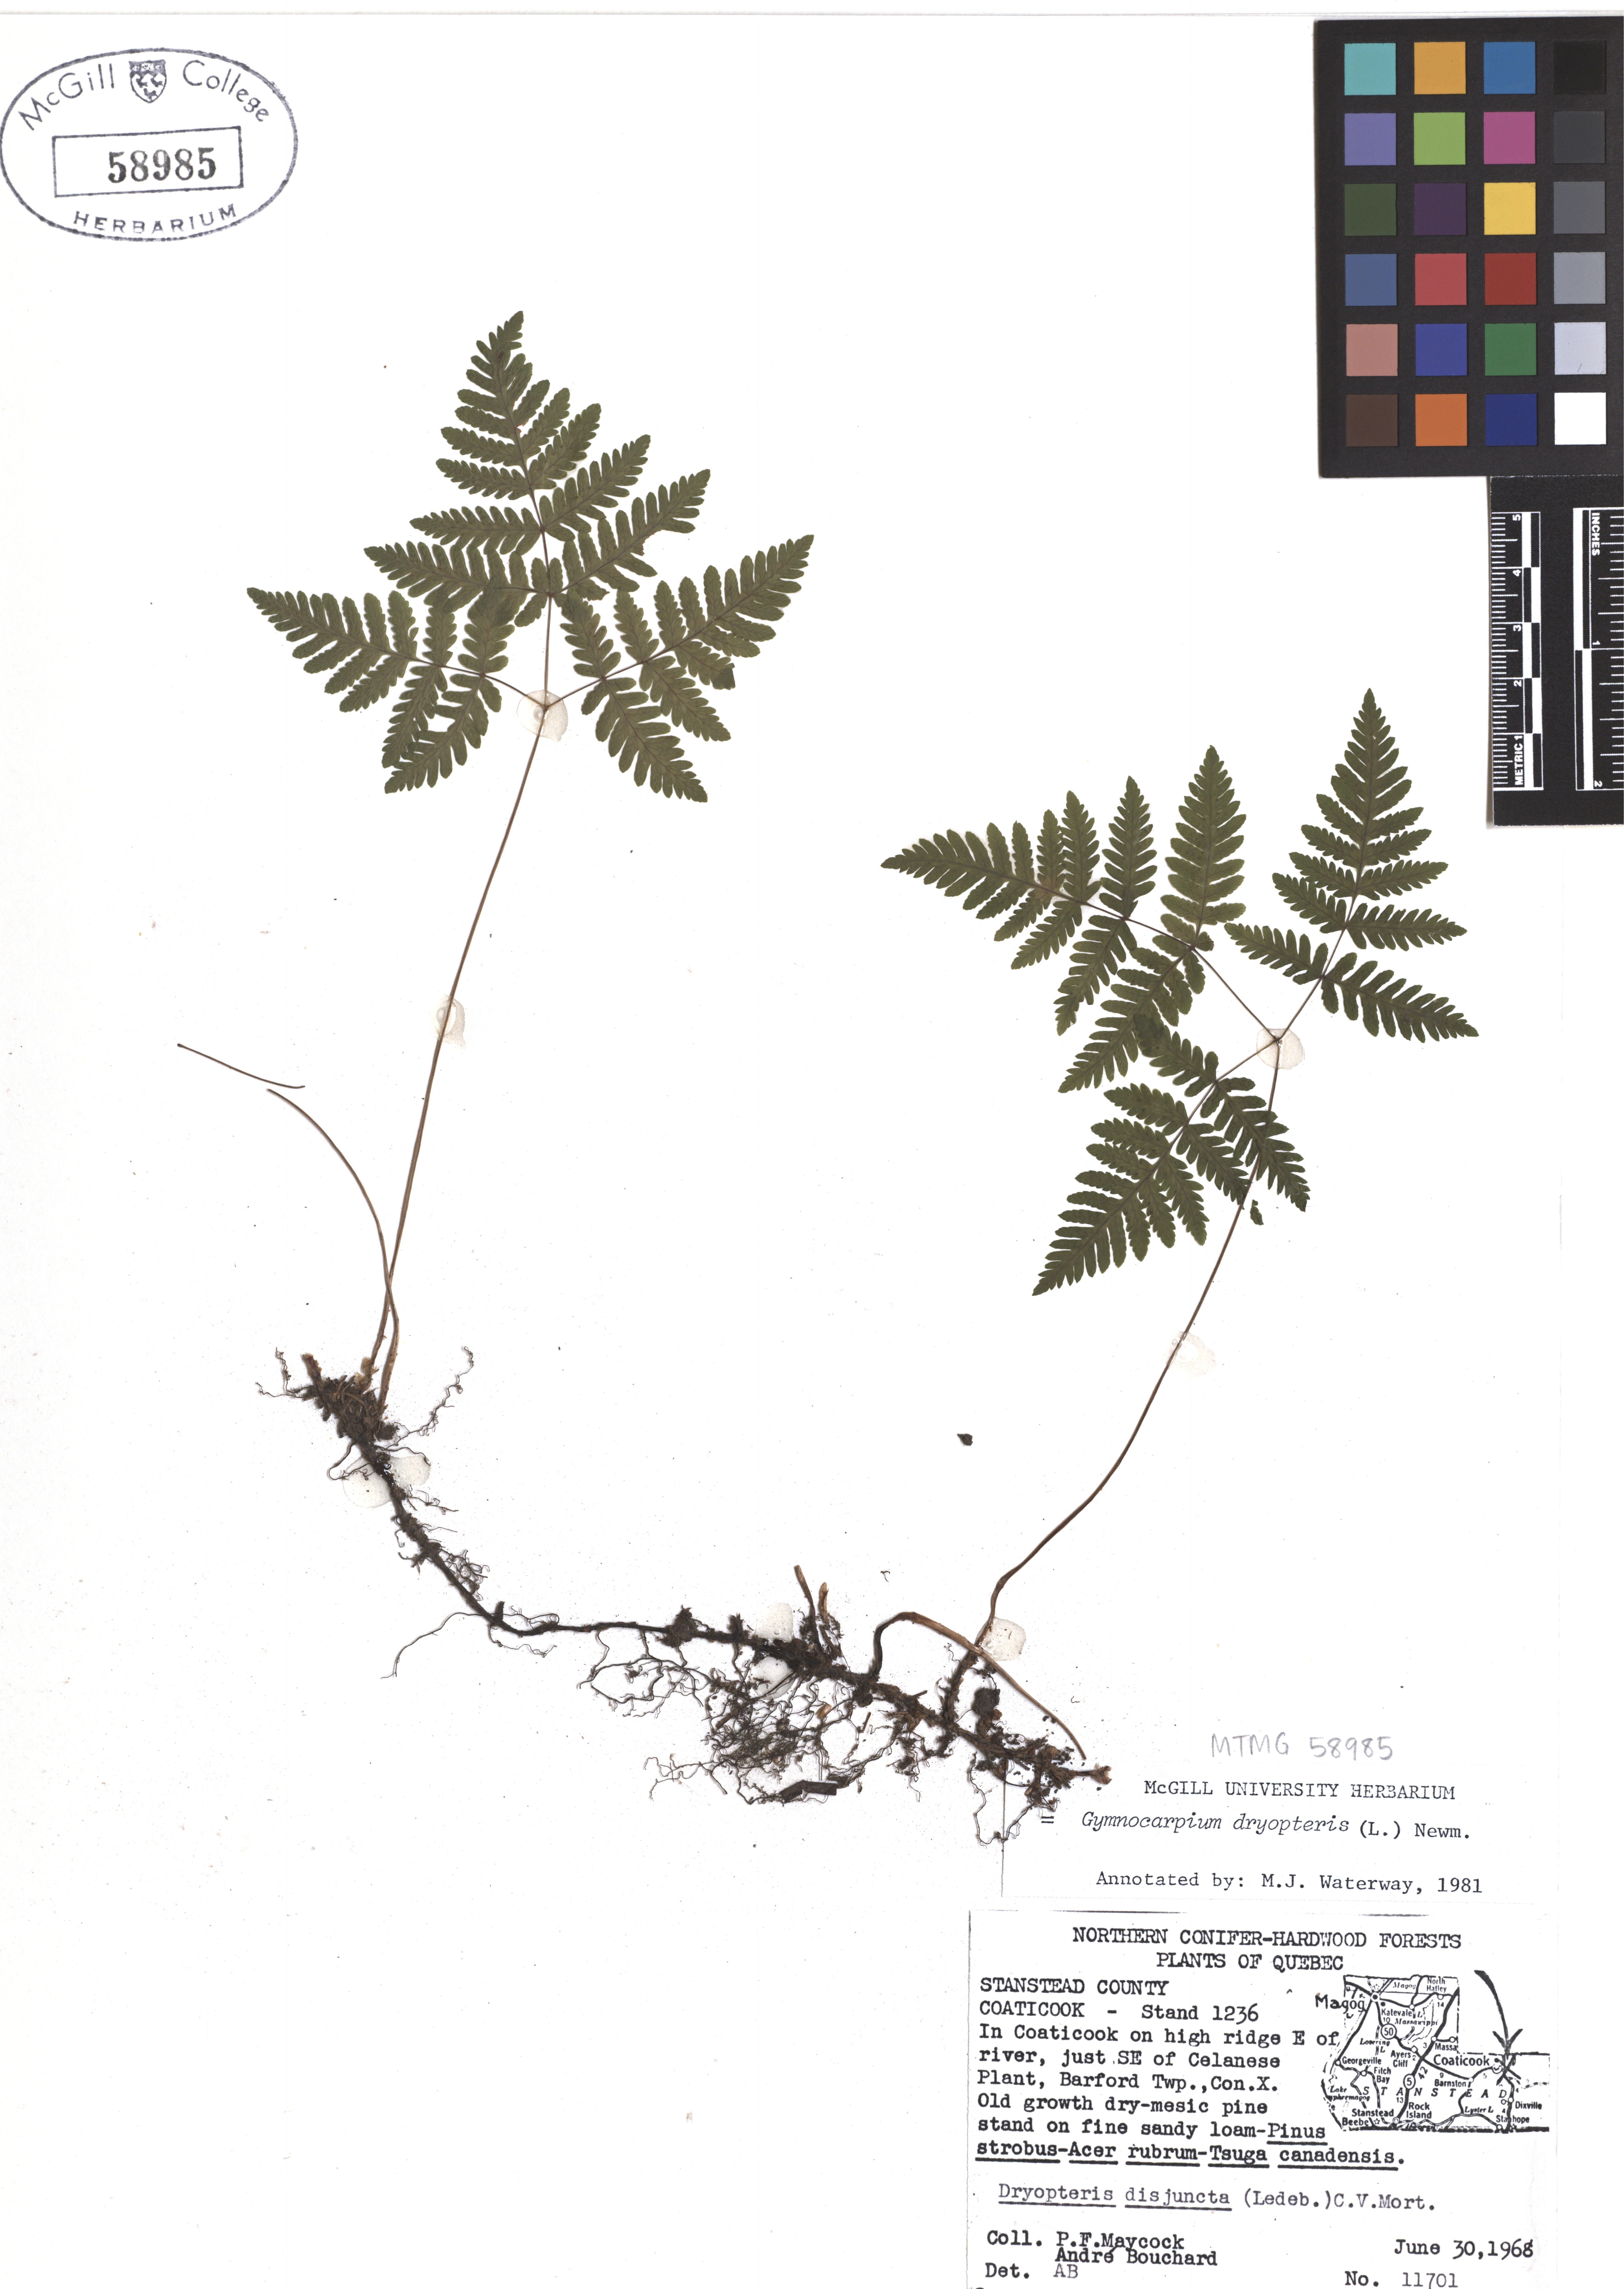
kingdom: Plantae
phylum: Tracheophyta
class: Polypodiopsida
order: Polypodiales
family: Cystopteridaceae
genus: Gymnocarpium
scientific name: Gymnocarpium dryopteris
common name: Oak fern
